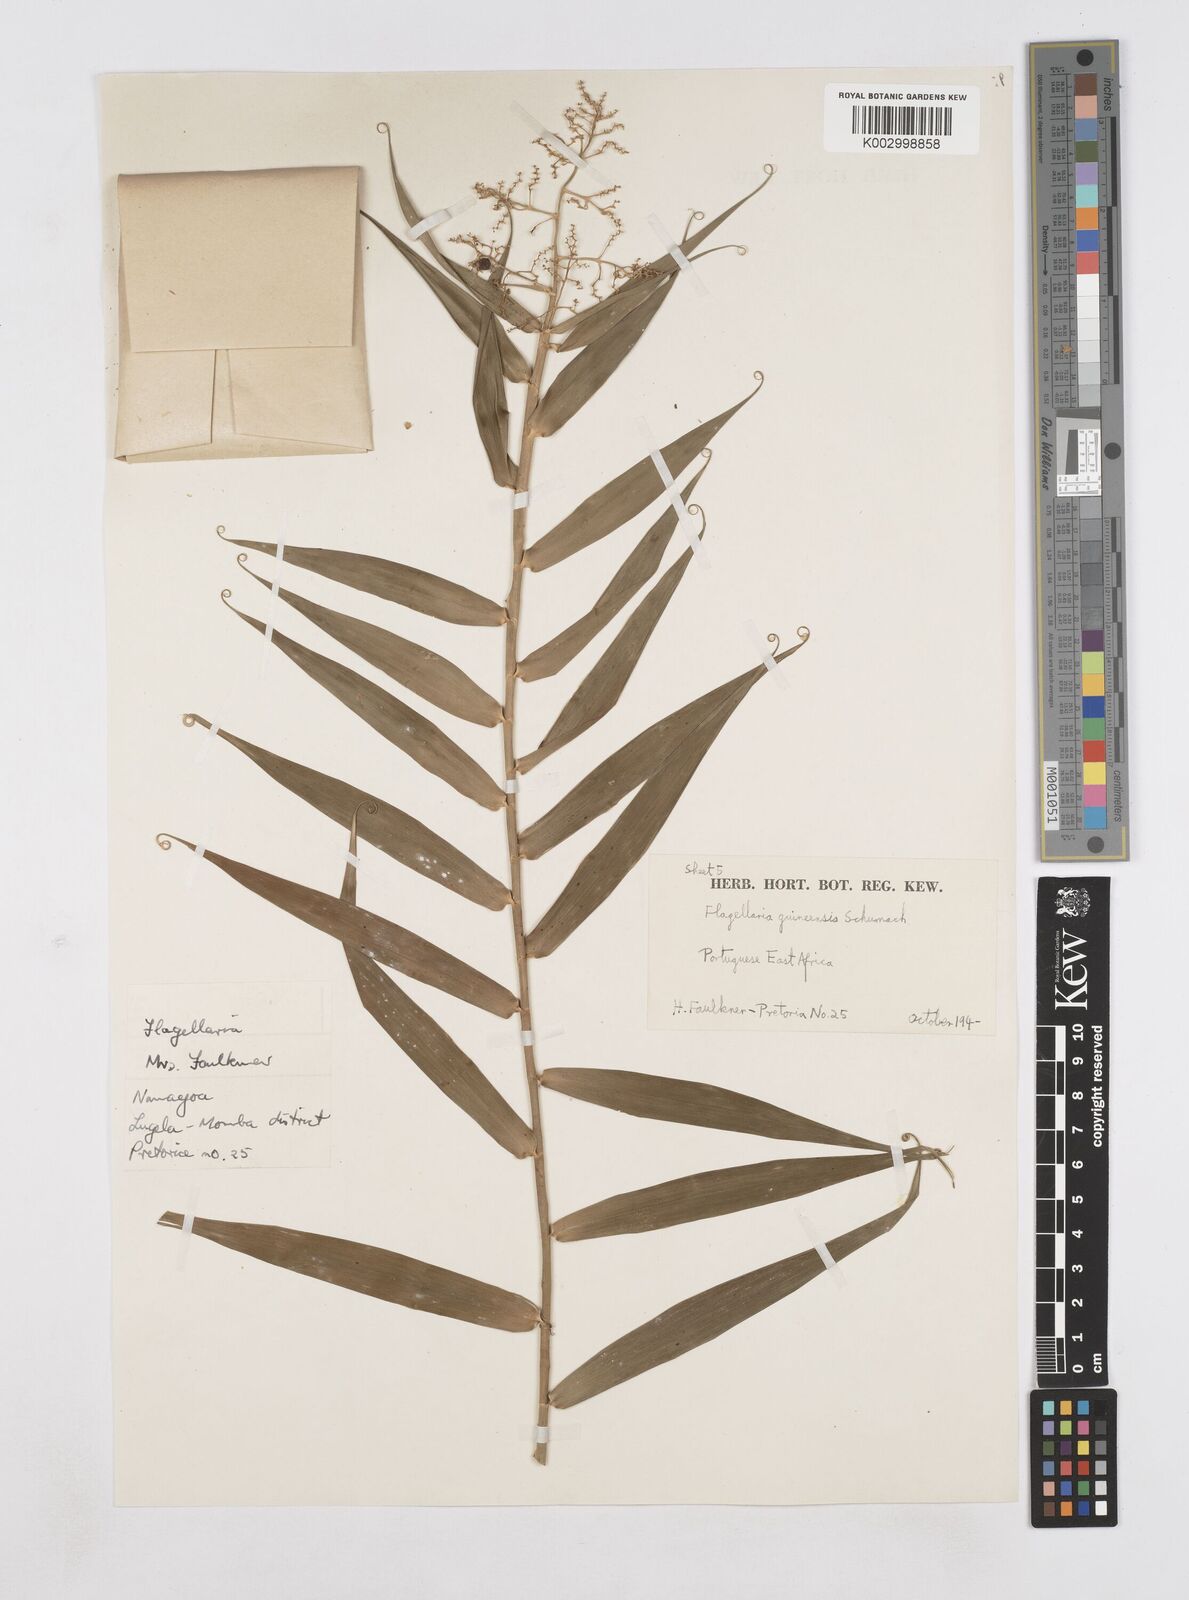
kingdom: Plantae
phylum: Tracheophyta
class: Liliopsida
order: Poales
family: Flagellariaceae
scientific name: Flagellariaceae
